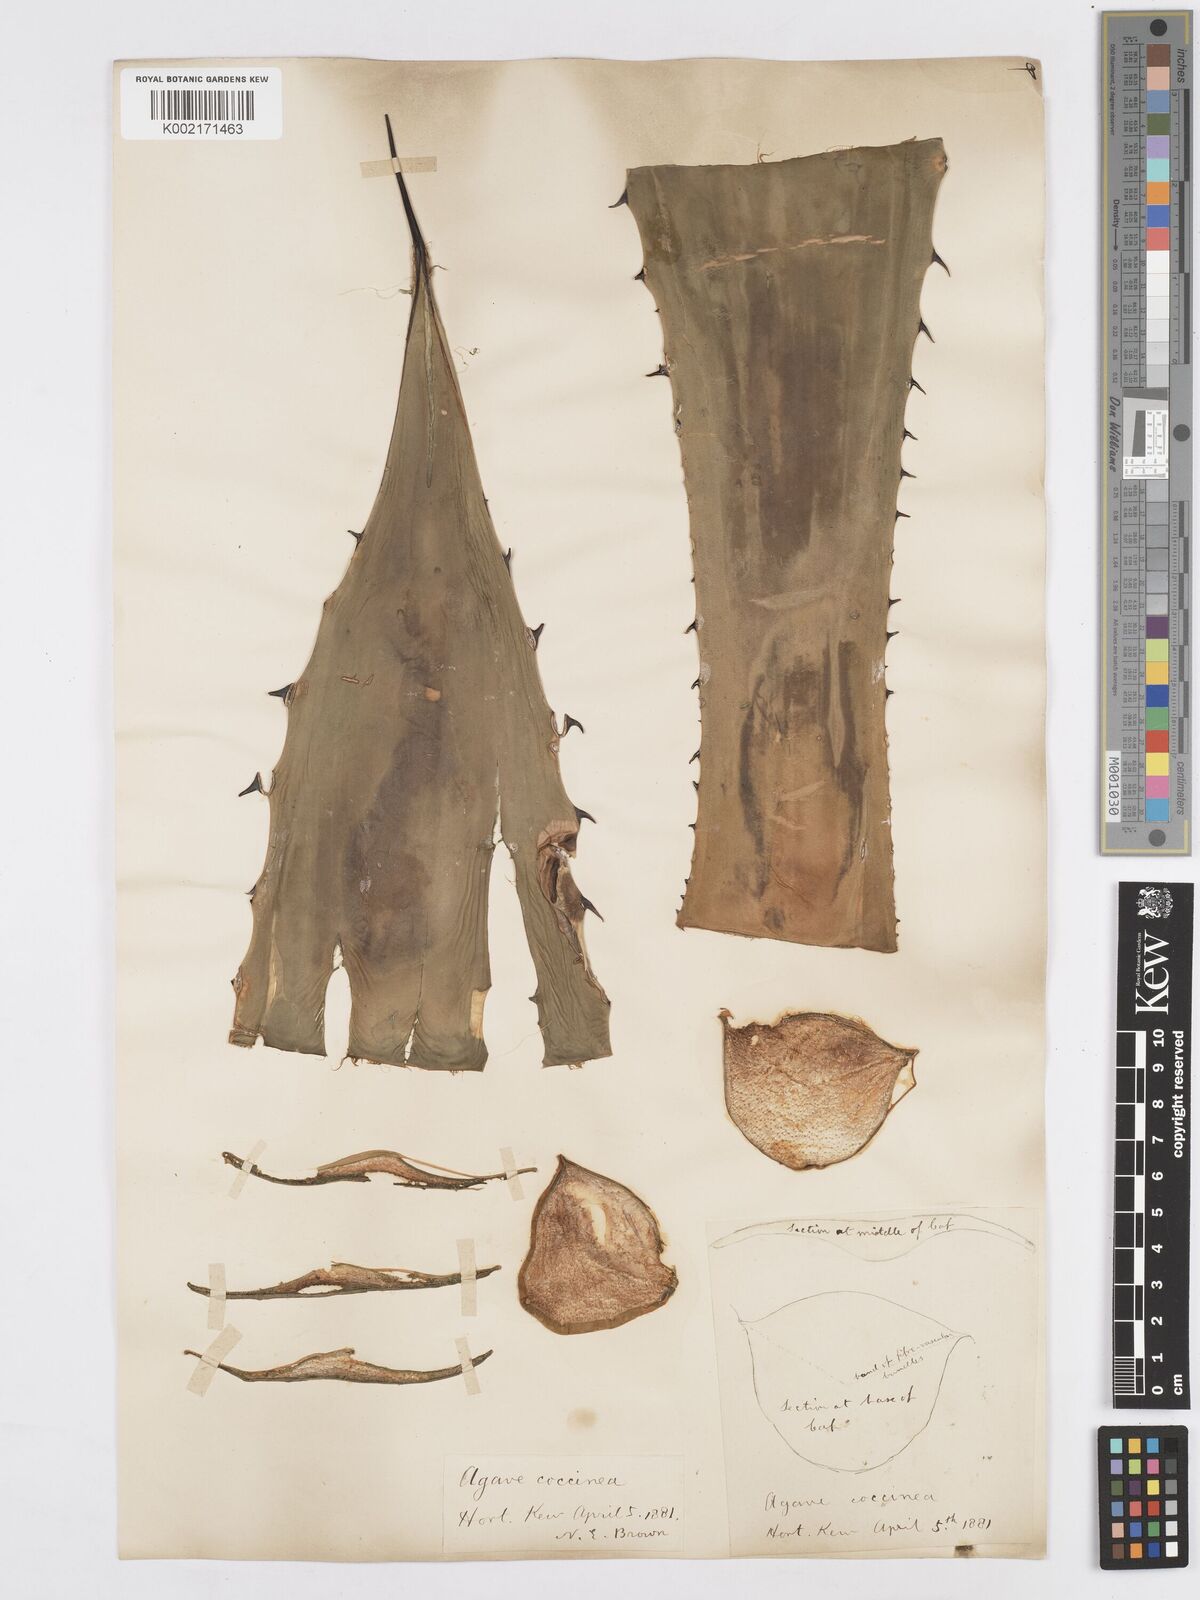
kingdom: Plantae
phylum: Tracheophyta
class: Liliopsida
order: Asparagales
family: Asparagaceae
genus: Agave
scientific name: Agave atrovirens
